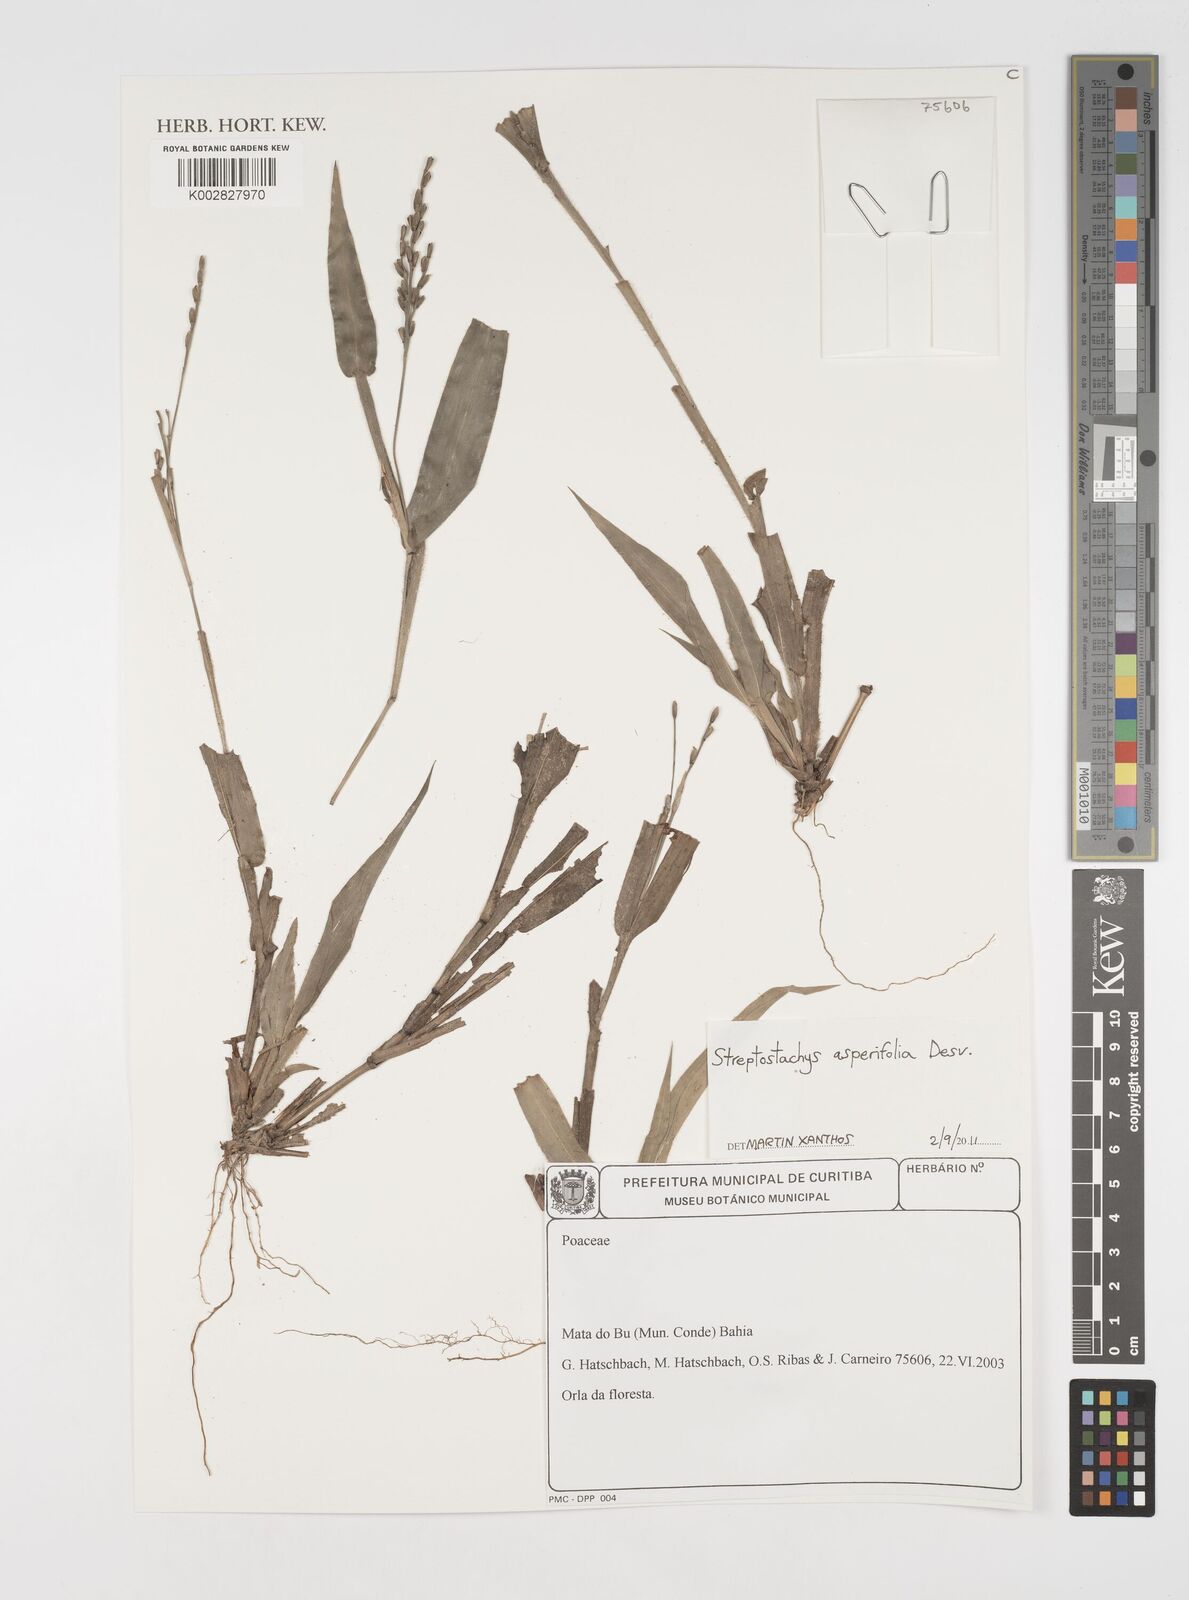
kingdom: Plantae
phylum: Tracheophyta
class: Liliopsida
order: Poales
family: Poaceae
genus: Streptostachys
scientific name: Streptostachys asperifolia
